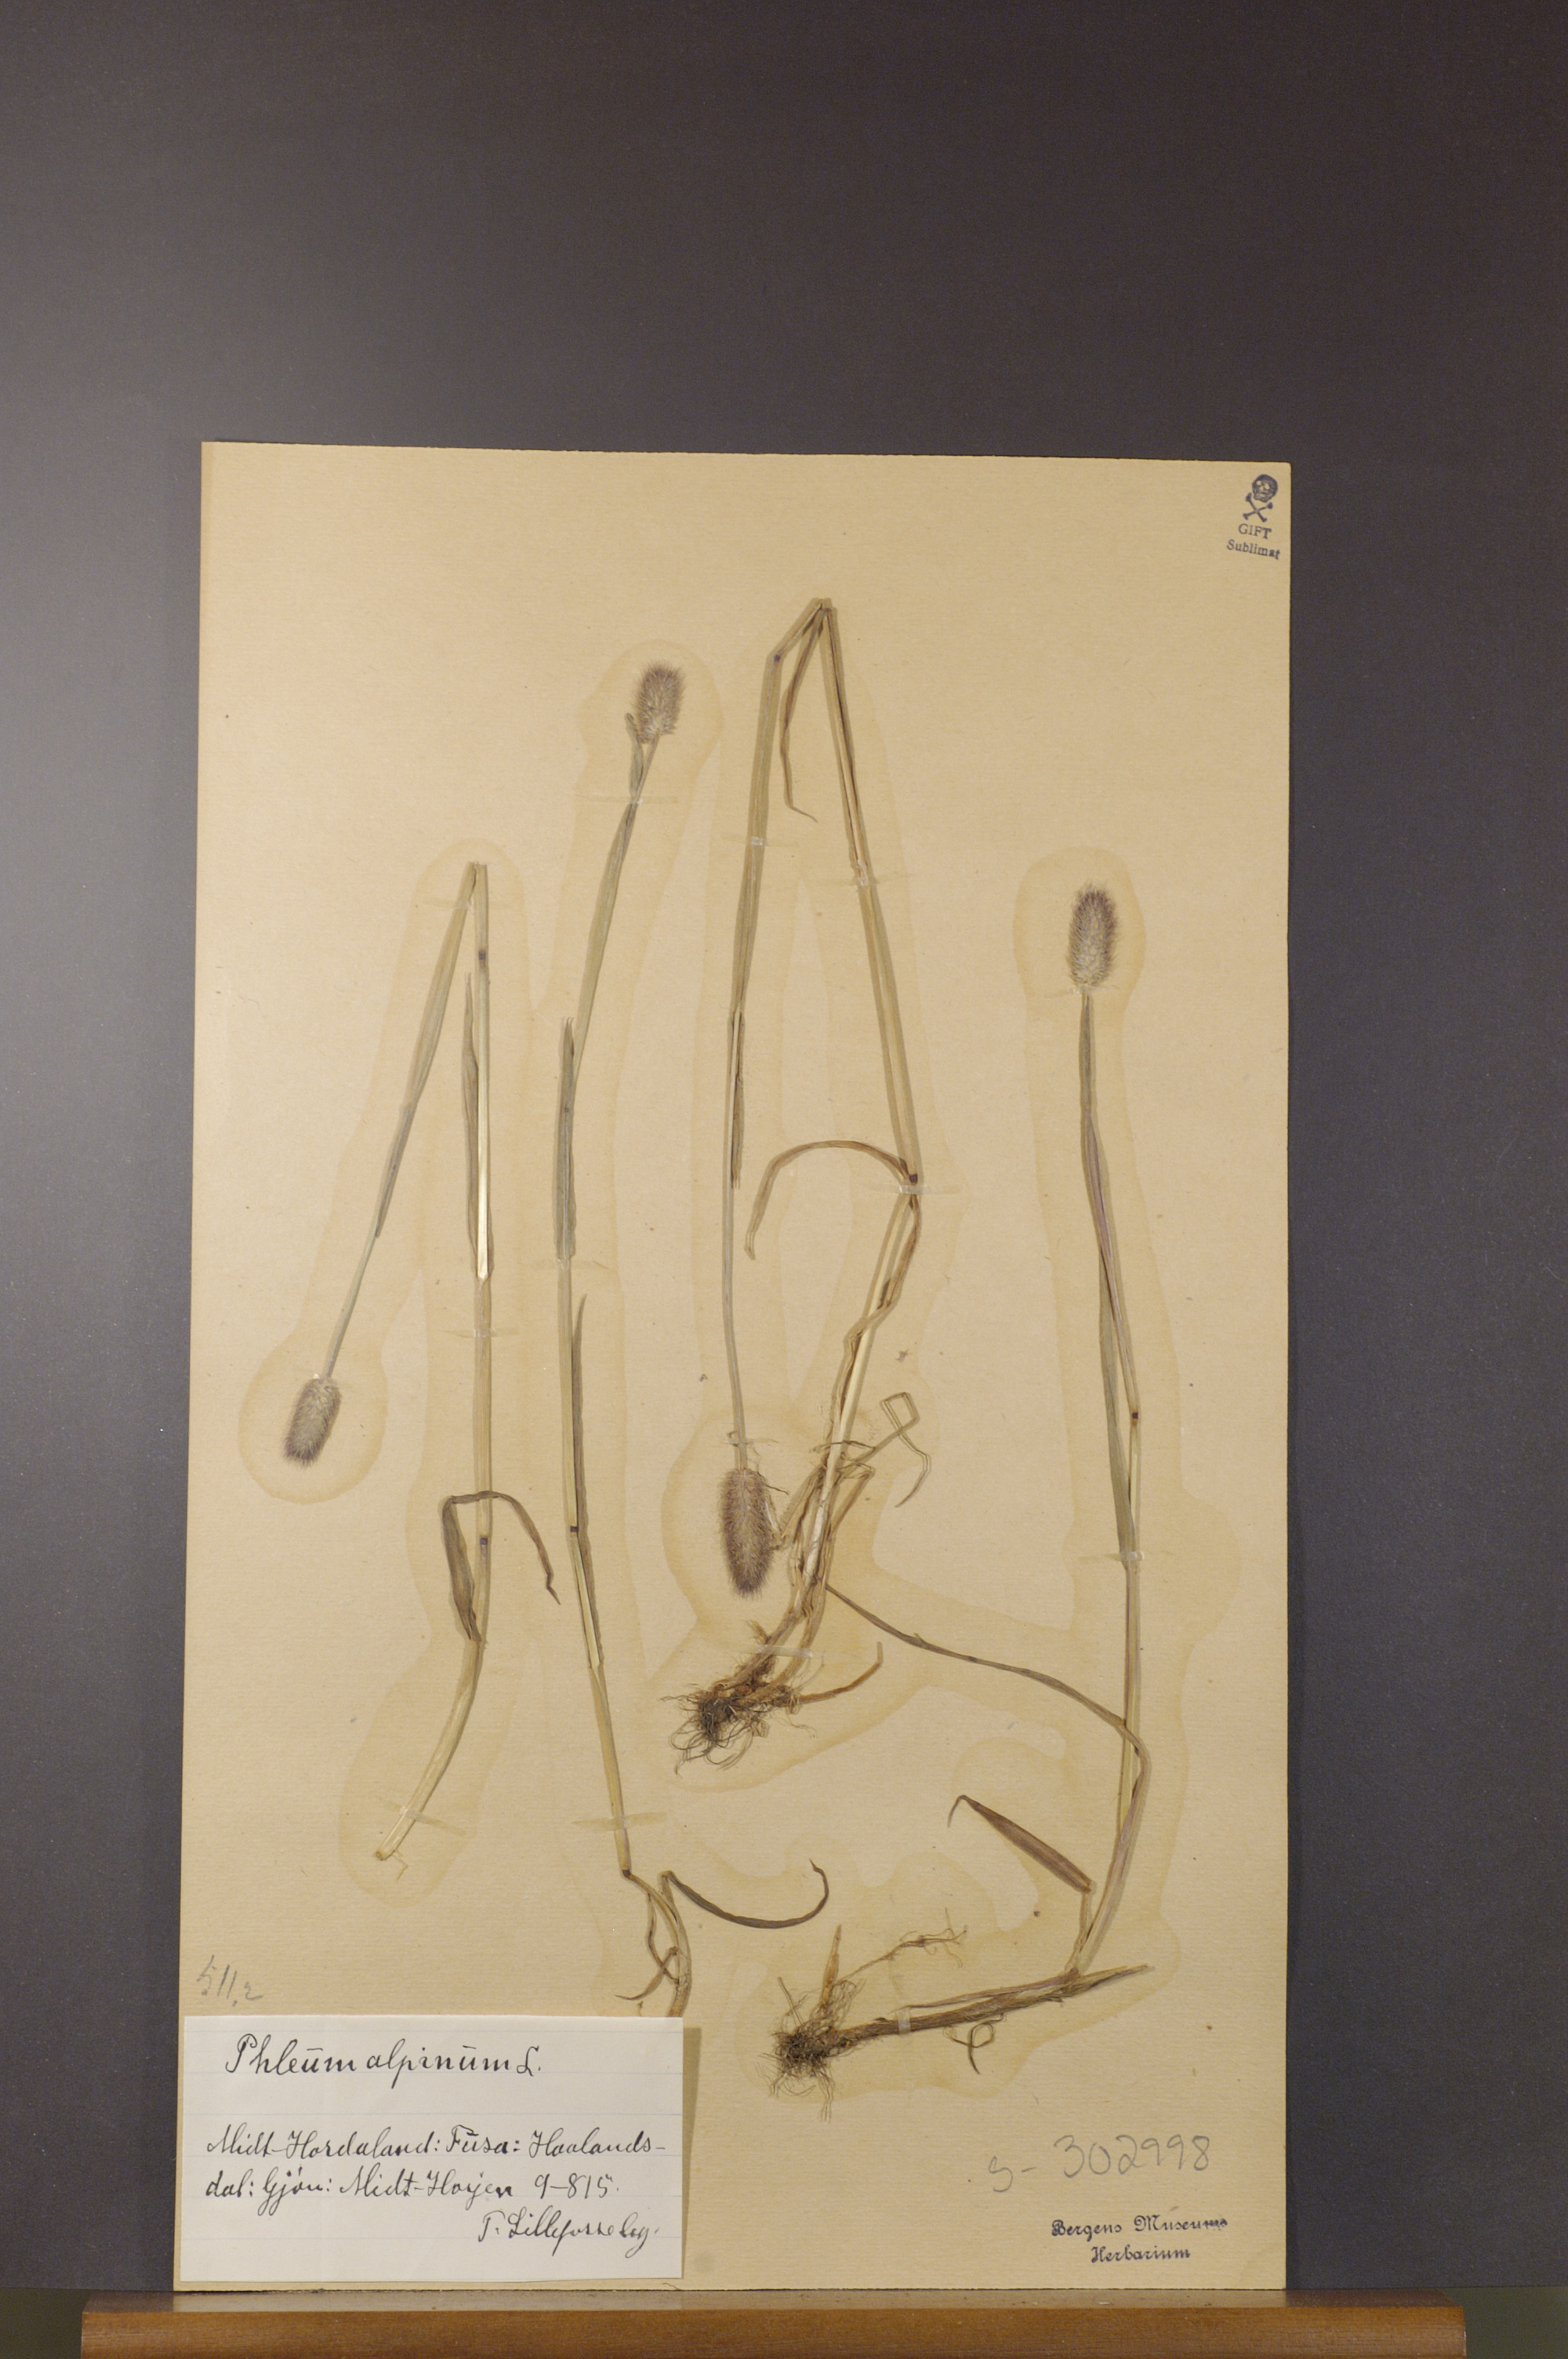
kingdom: Plantae
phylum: Tracheophyta
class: Liliopsida
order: Poales
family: Poaceae
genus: Phleum
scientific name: Phleum alpinum
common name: Alpine cat's-tail
